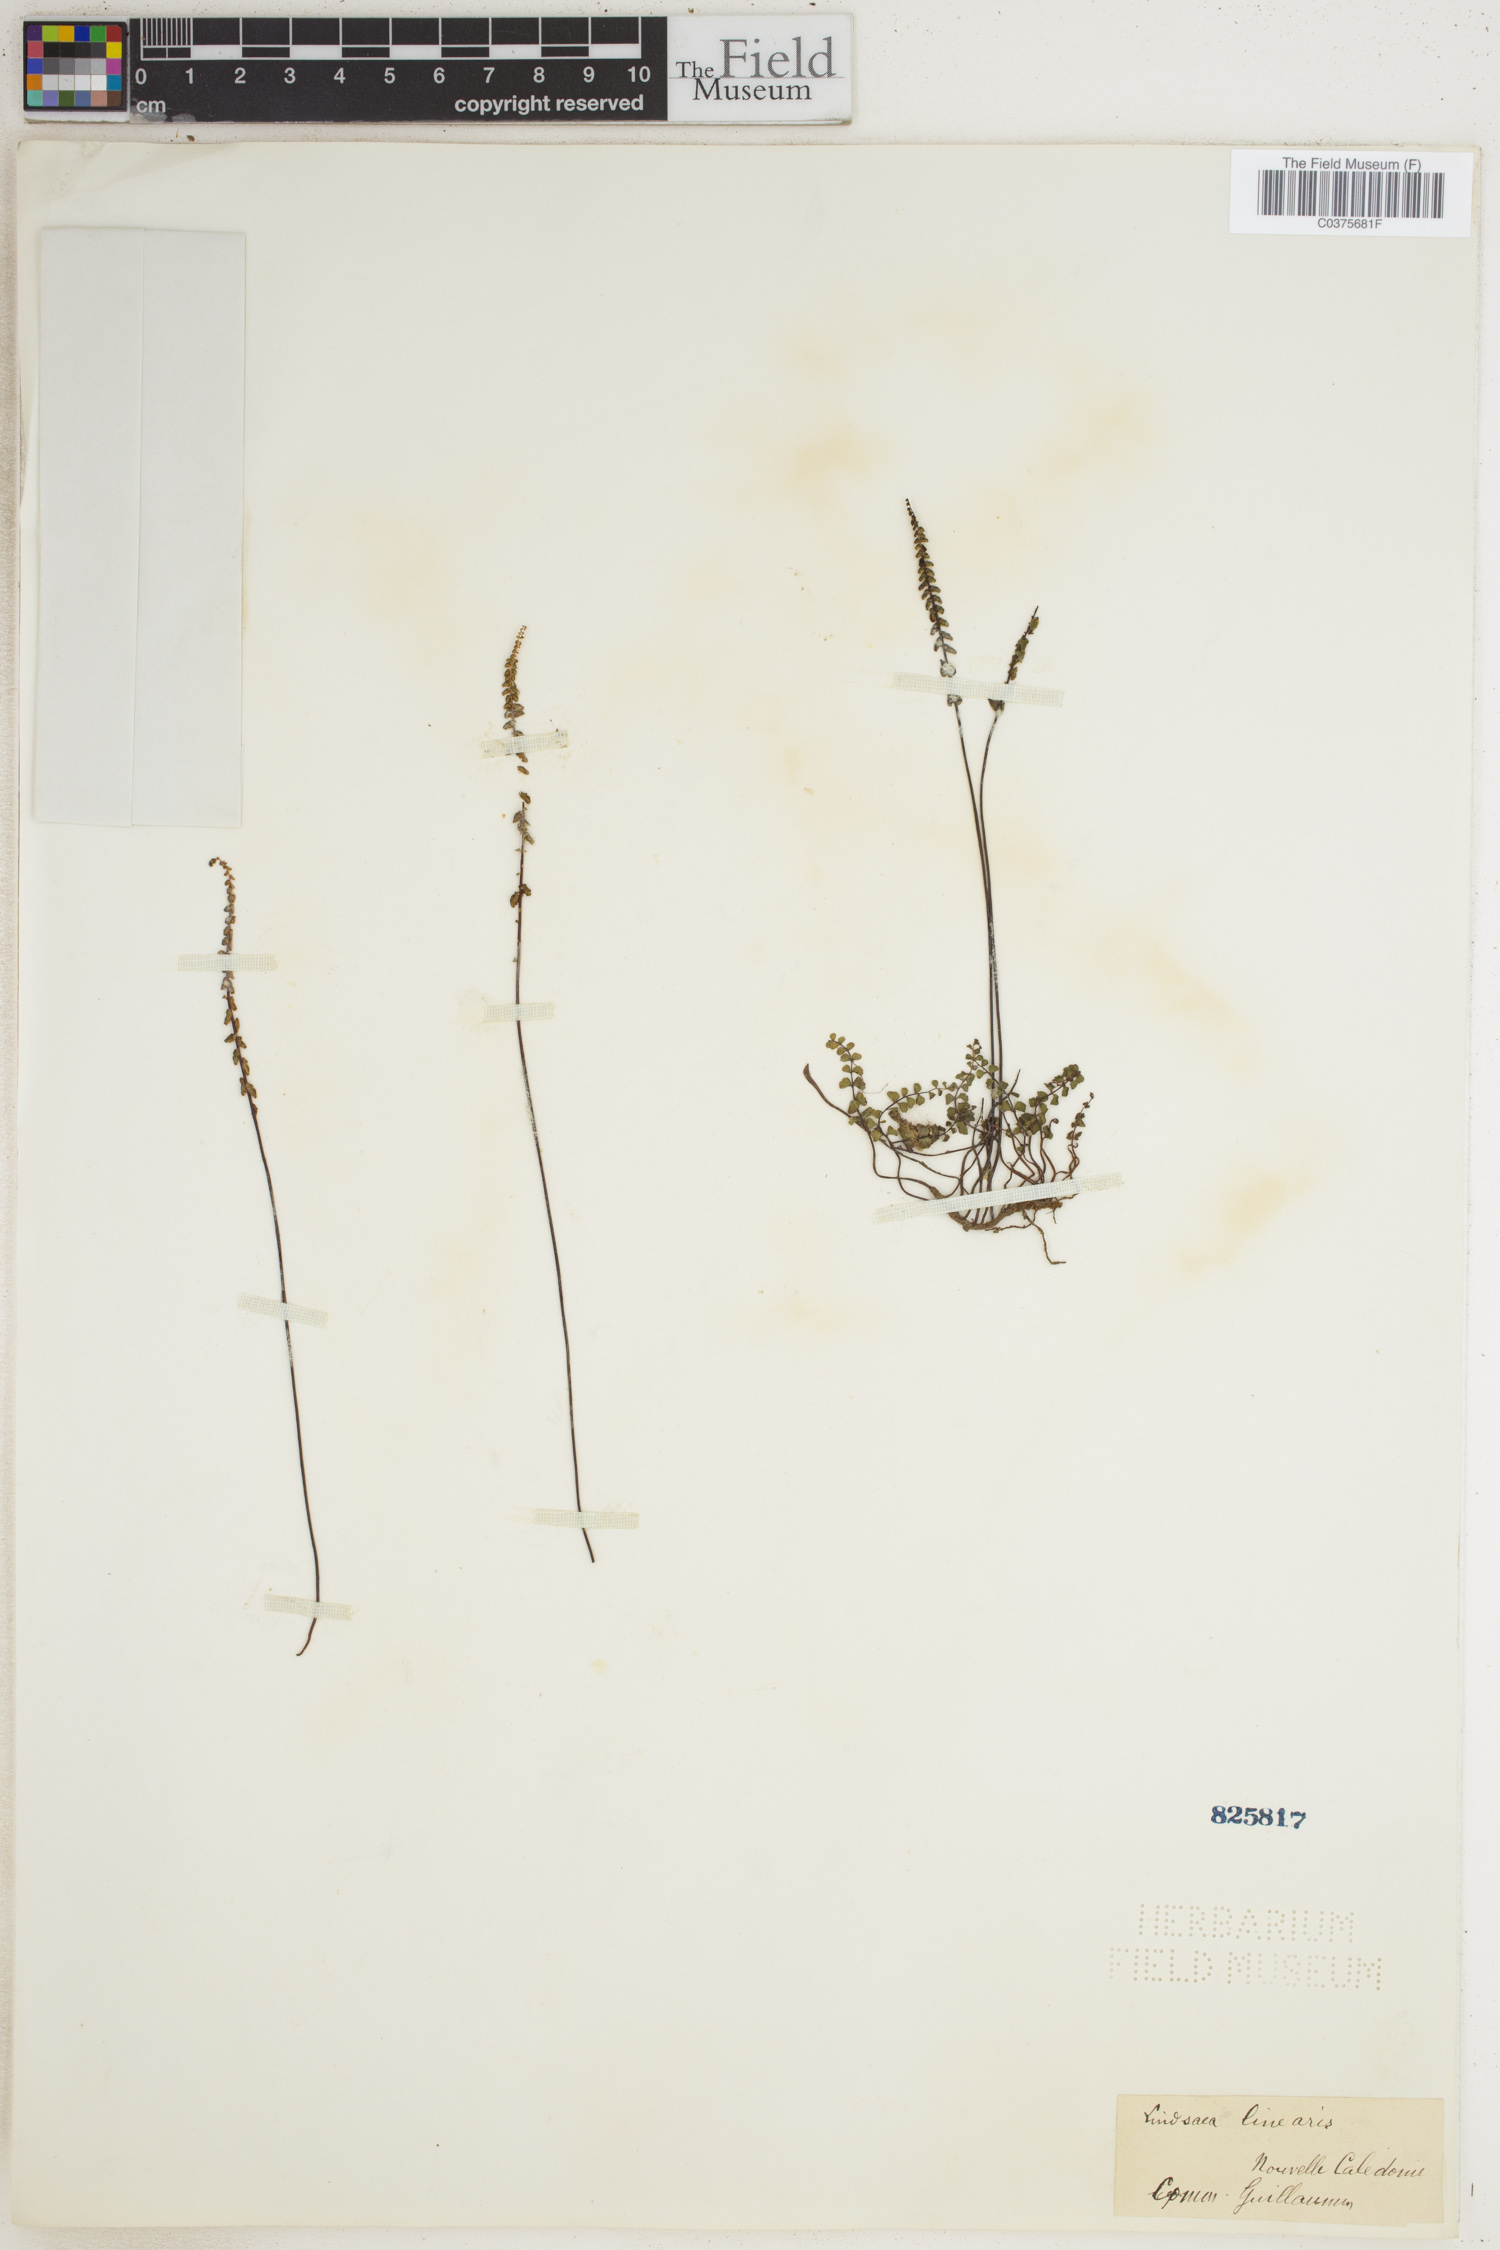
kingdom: Plantae
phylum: Tracheophyta
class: Polypodiopsida
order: Polypodiales
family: Lindsaeaceae
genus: Lindsaea
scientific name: Lindsaea linearis
